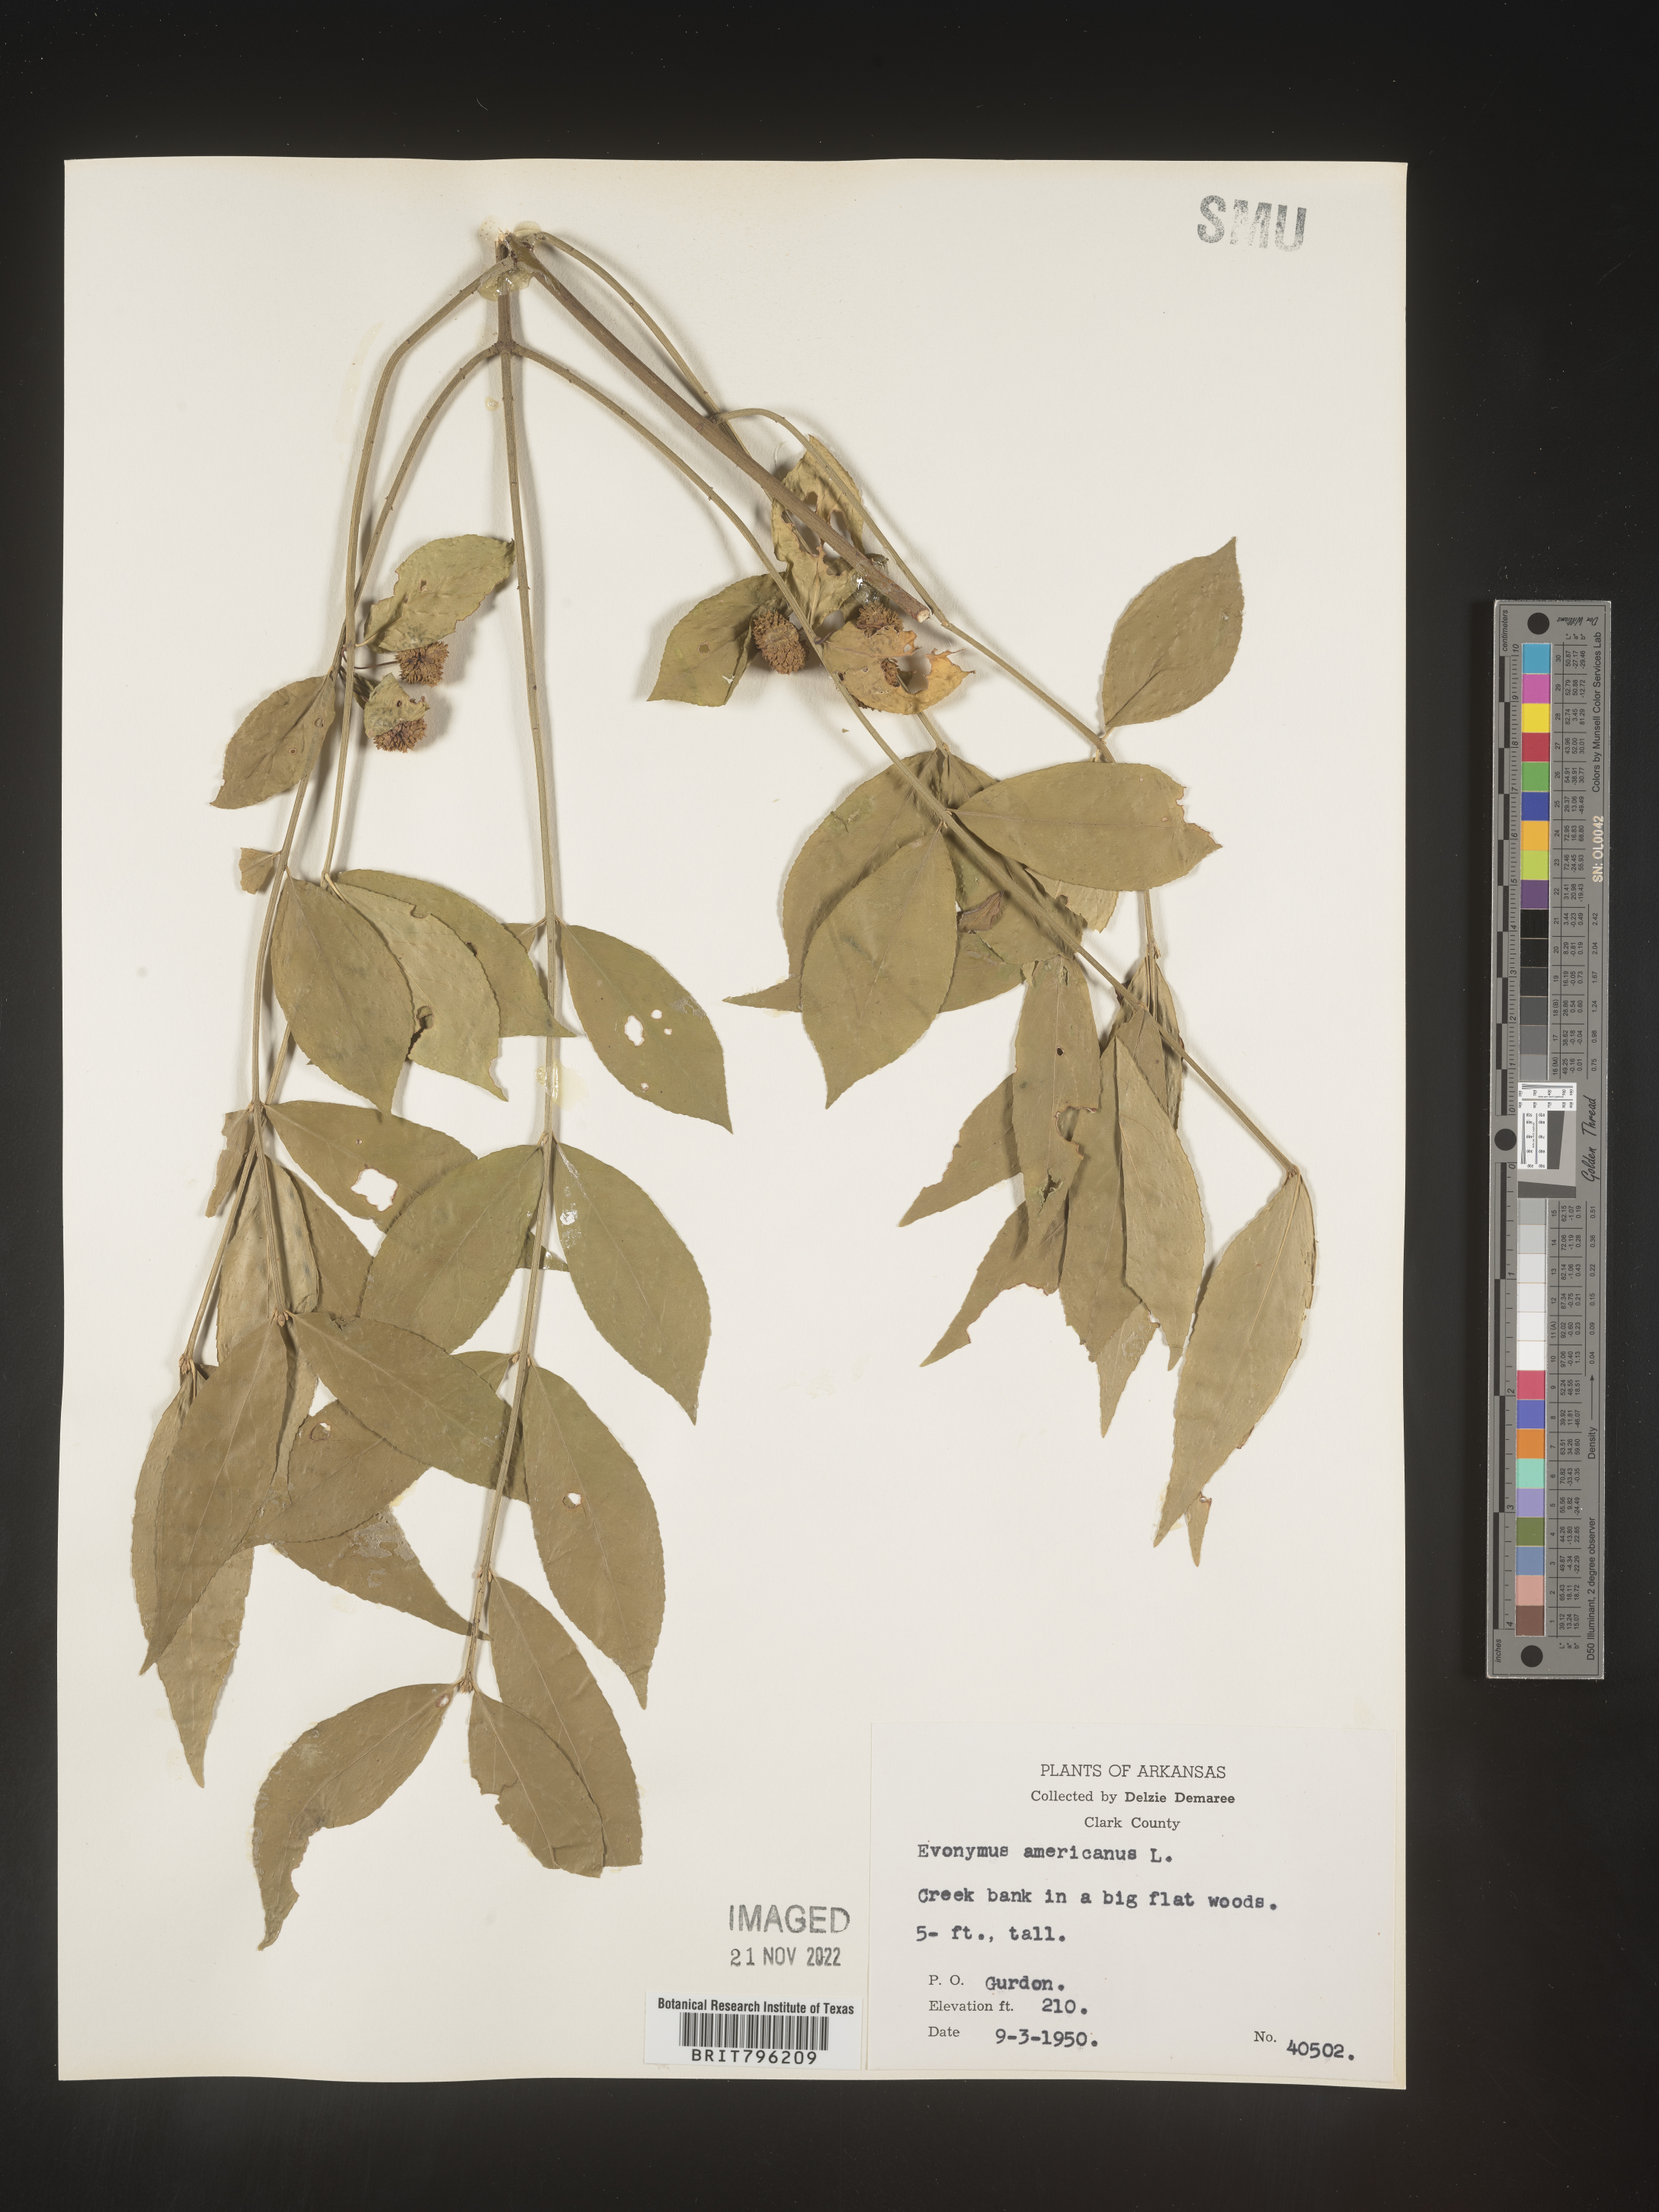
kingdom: Plantae
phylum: Tracheophyta
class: Magnoliopsida
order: Celastrales
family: Celastraceae
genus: Euonymus
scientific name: Euonymus americanus
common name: Bursting-heart
